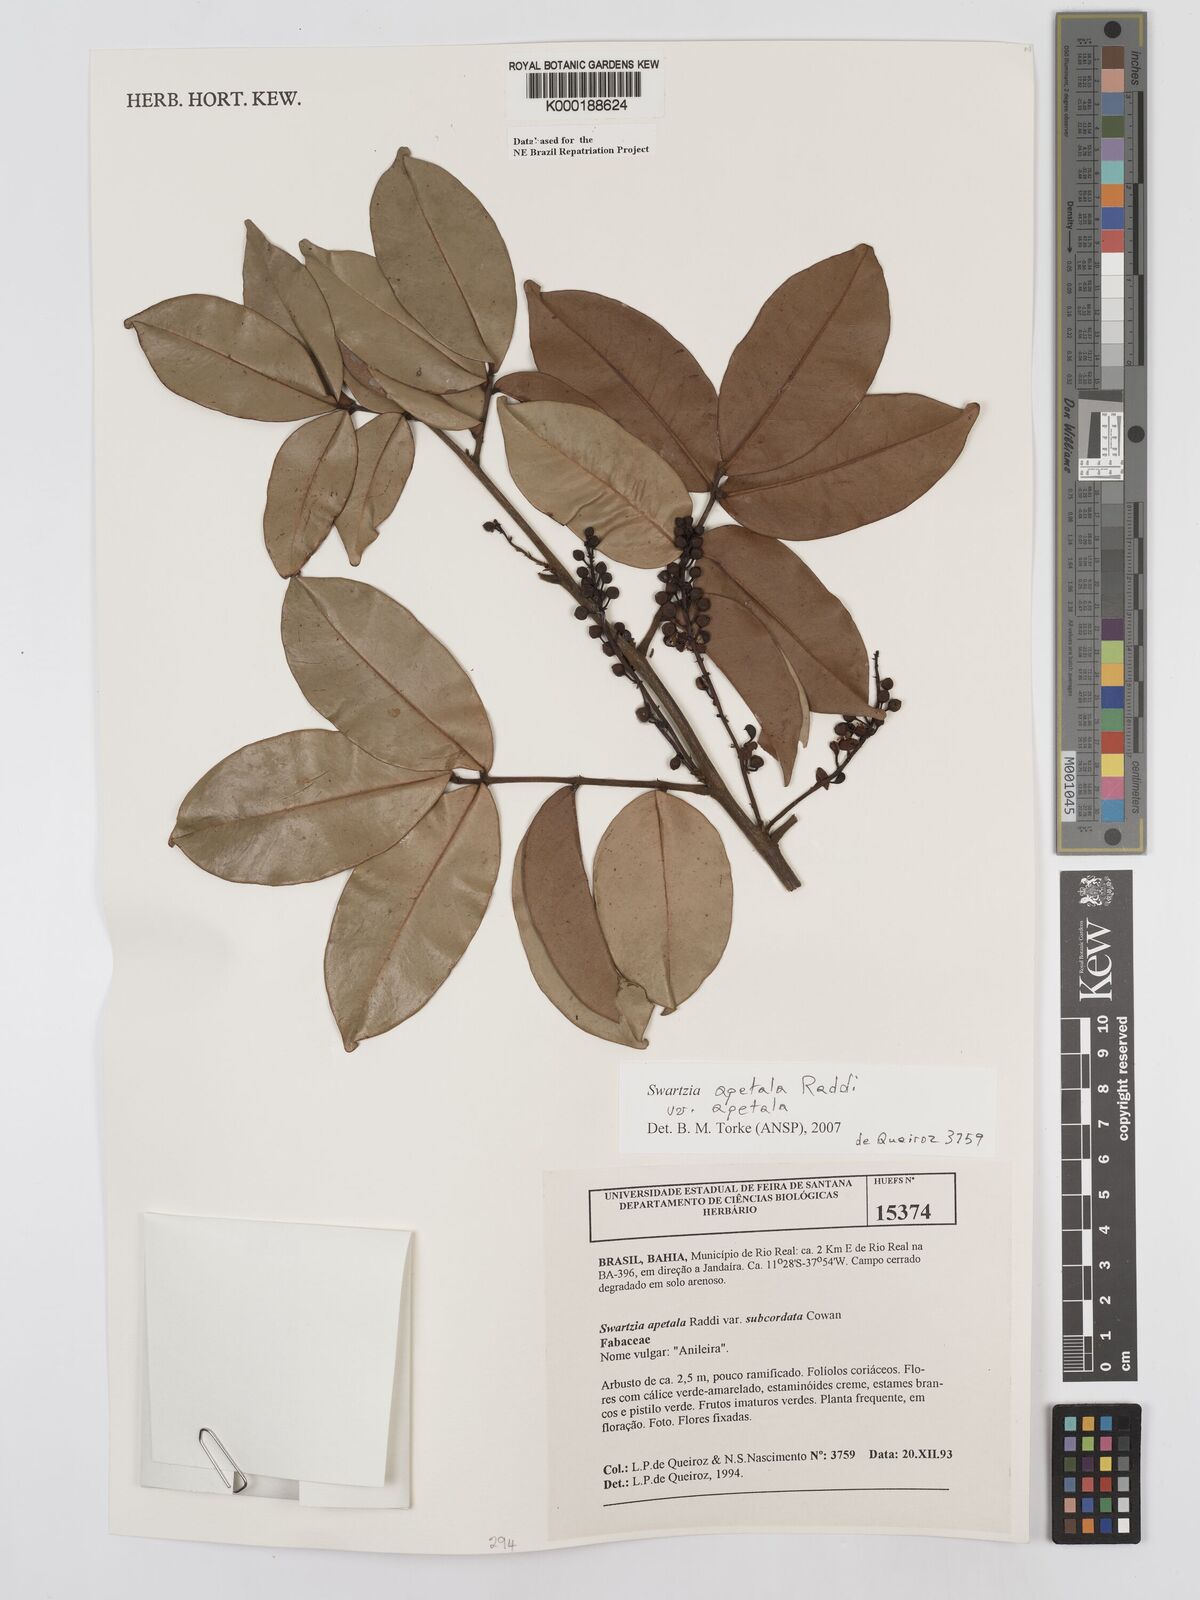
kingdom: Plantae
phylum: Tracheophyta
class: Magnoliopsida
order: Fabales
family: Fabaceae
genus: Swartzia
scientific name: Swartzia apetala
